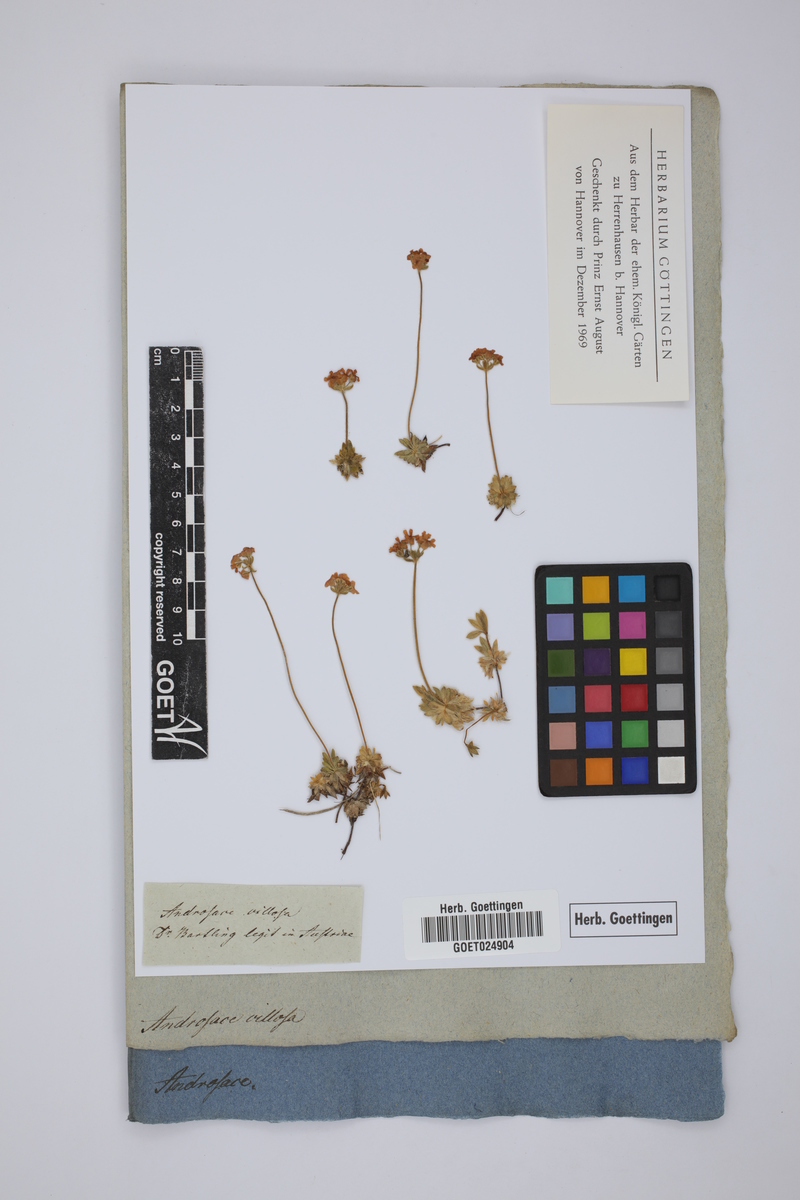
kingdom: Plantae
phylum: Tracheophyta
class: Magnoliopsida
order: Ericales
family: Primulaceae
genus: Androsace
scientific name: Androsace villosa
